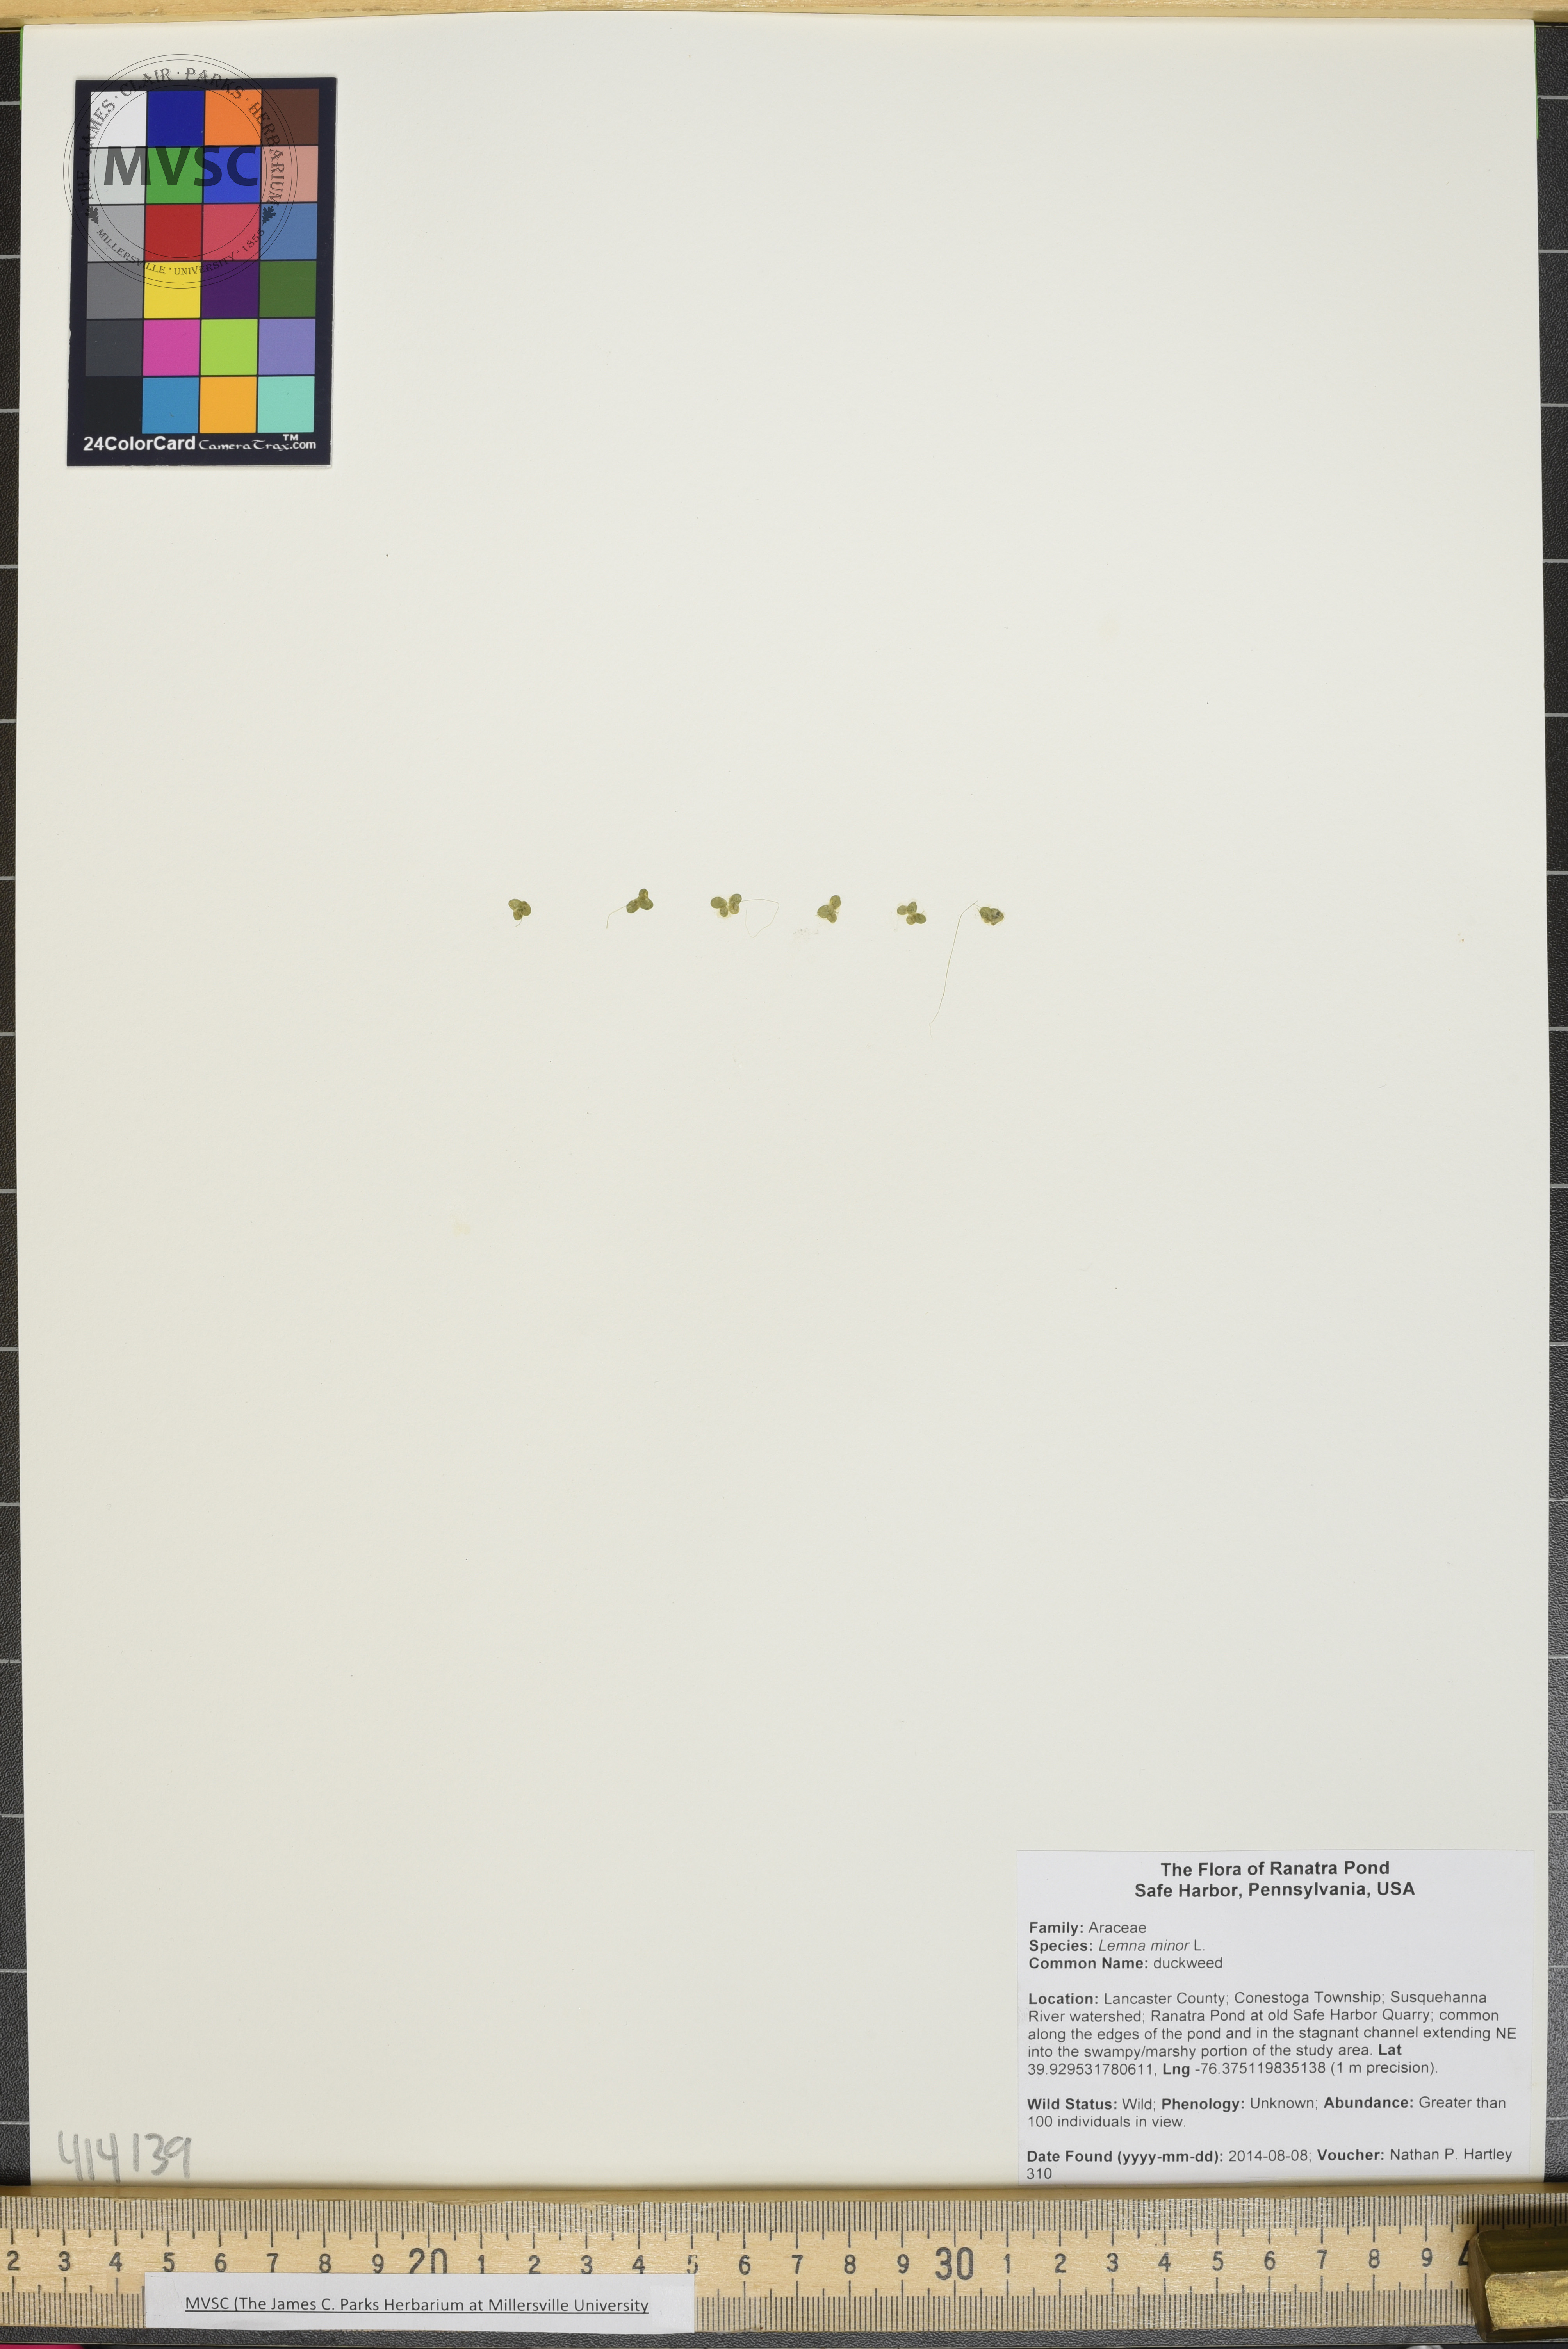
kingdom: Plantae
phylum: Tracheophyta
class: Liliopsida
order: Alismatales
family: Araceae
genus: Lemna
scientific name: Lemna minor
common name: duckweed
